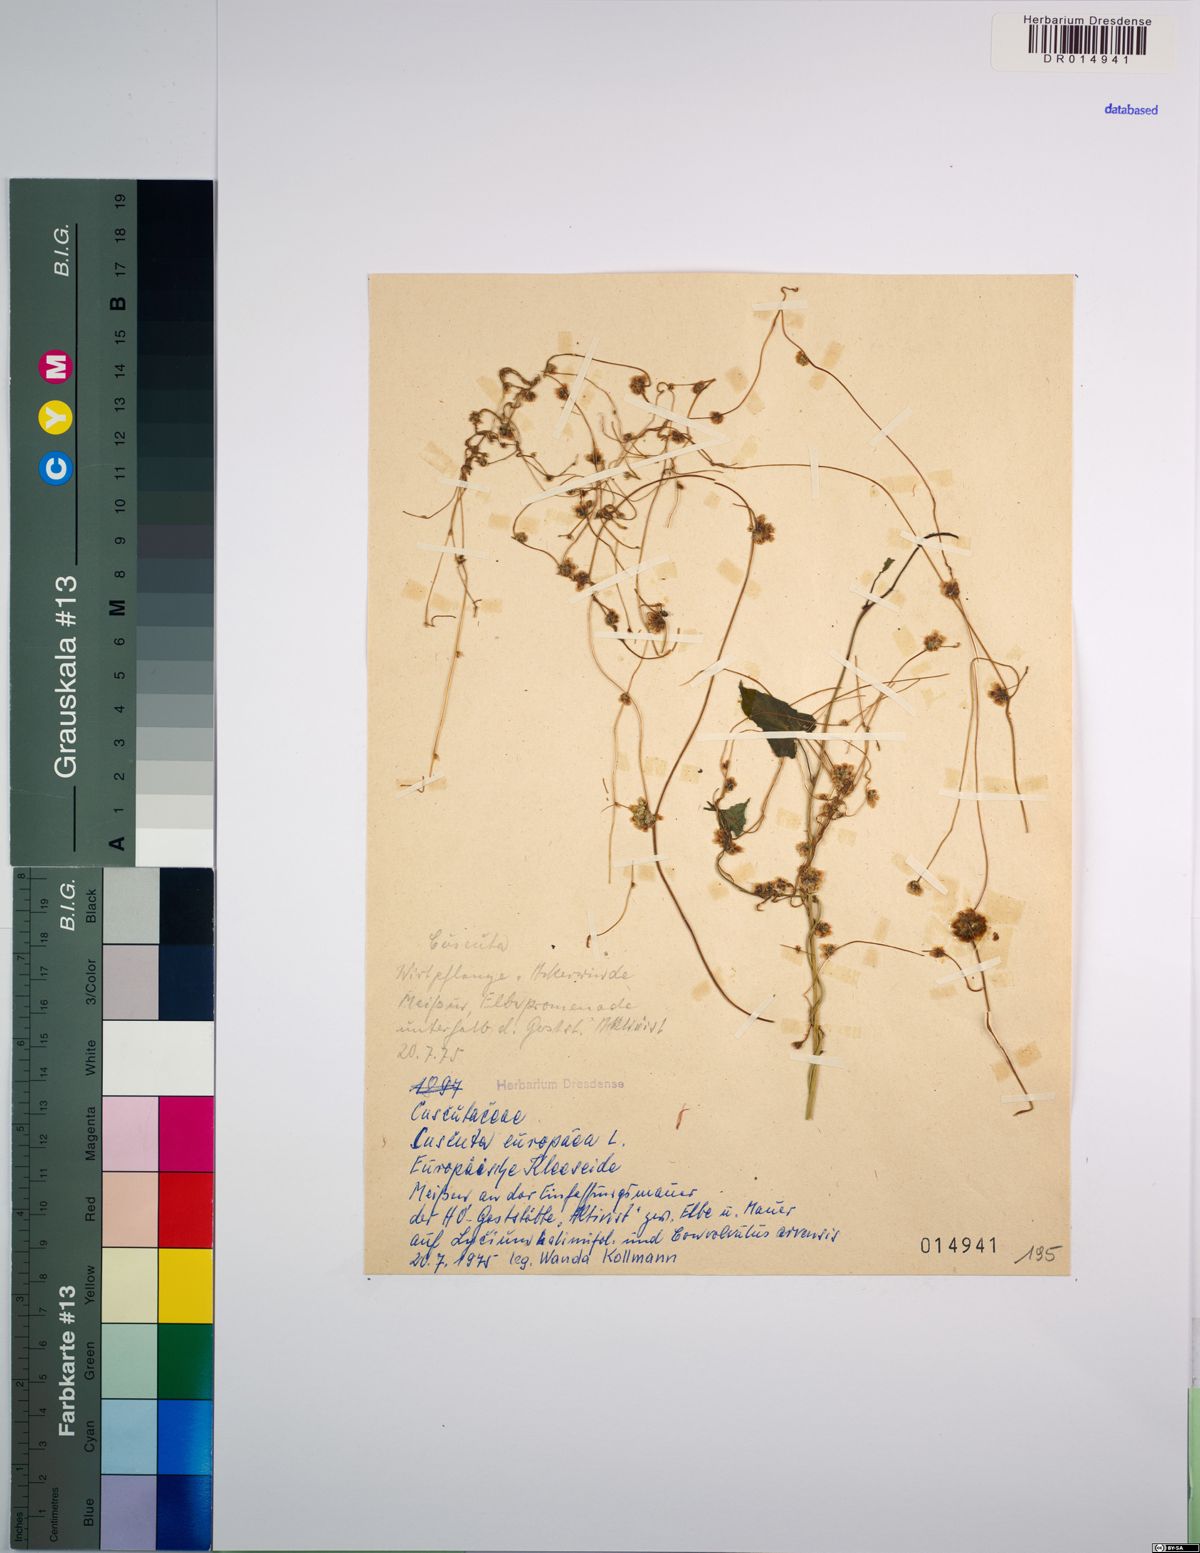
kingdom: Plantae
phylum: Tracheophyta
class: Magnoliopsida
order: Solanales
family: Convolvulaceae
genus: Cuscuta
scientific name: Cuscuta europaea
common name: Greater dodder
